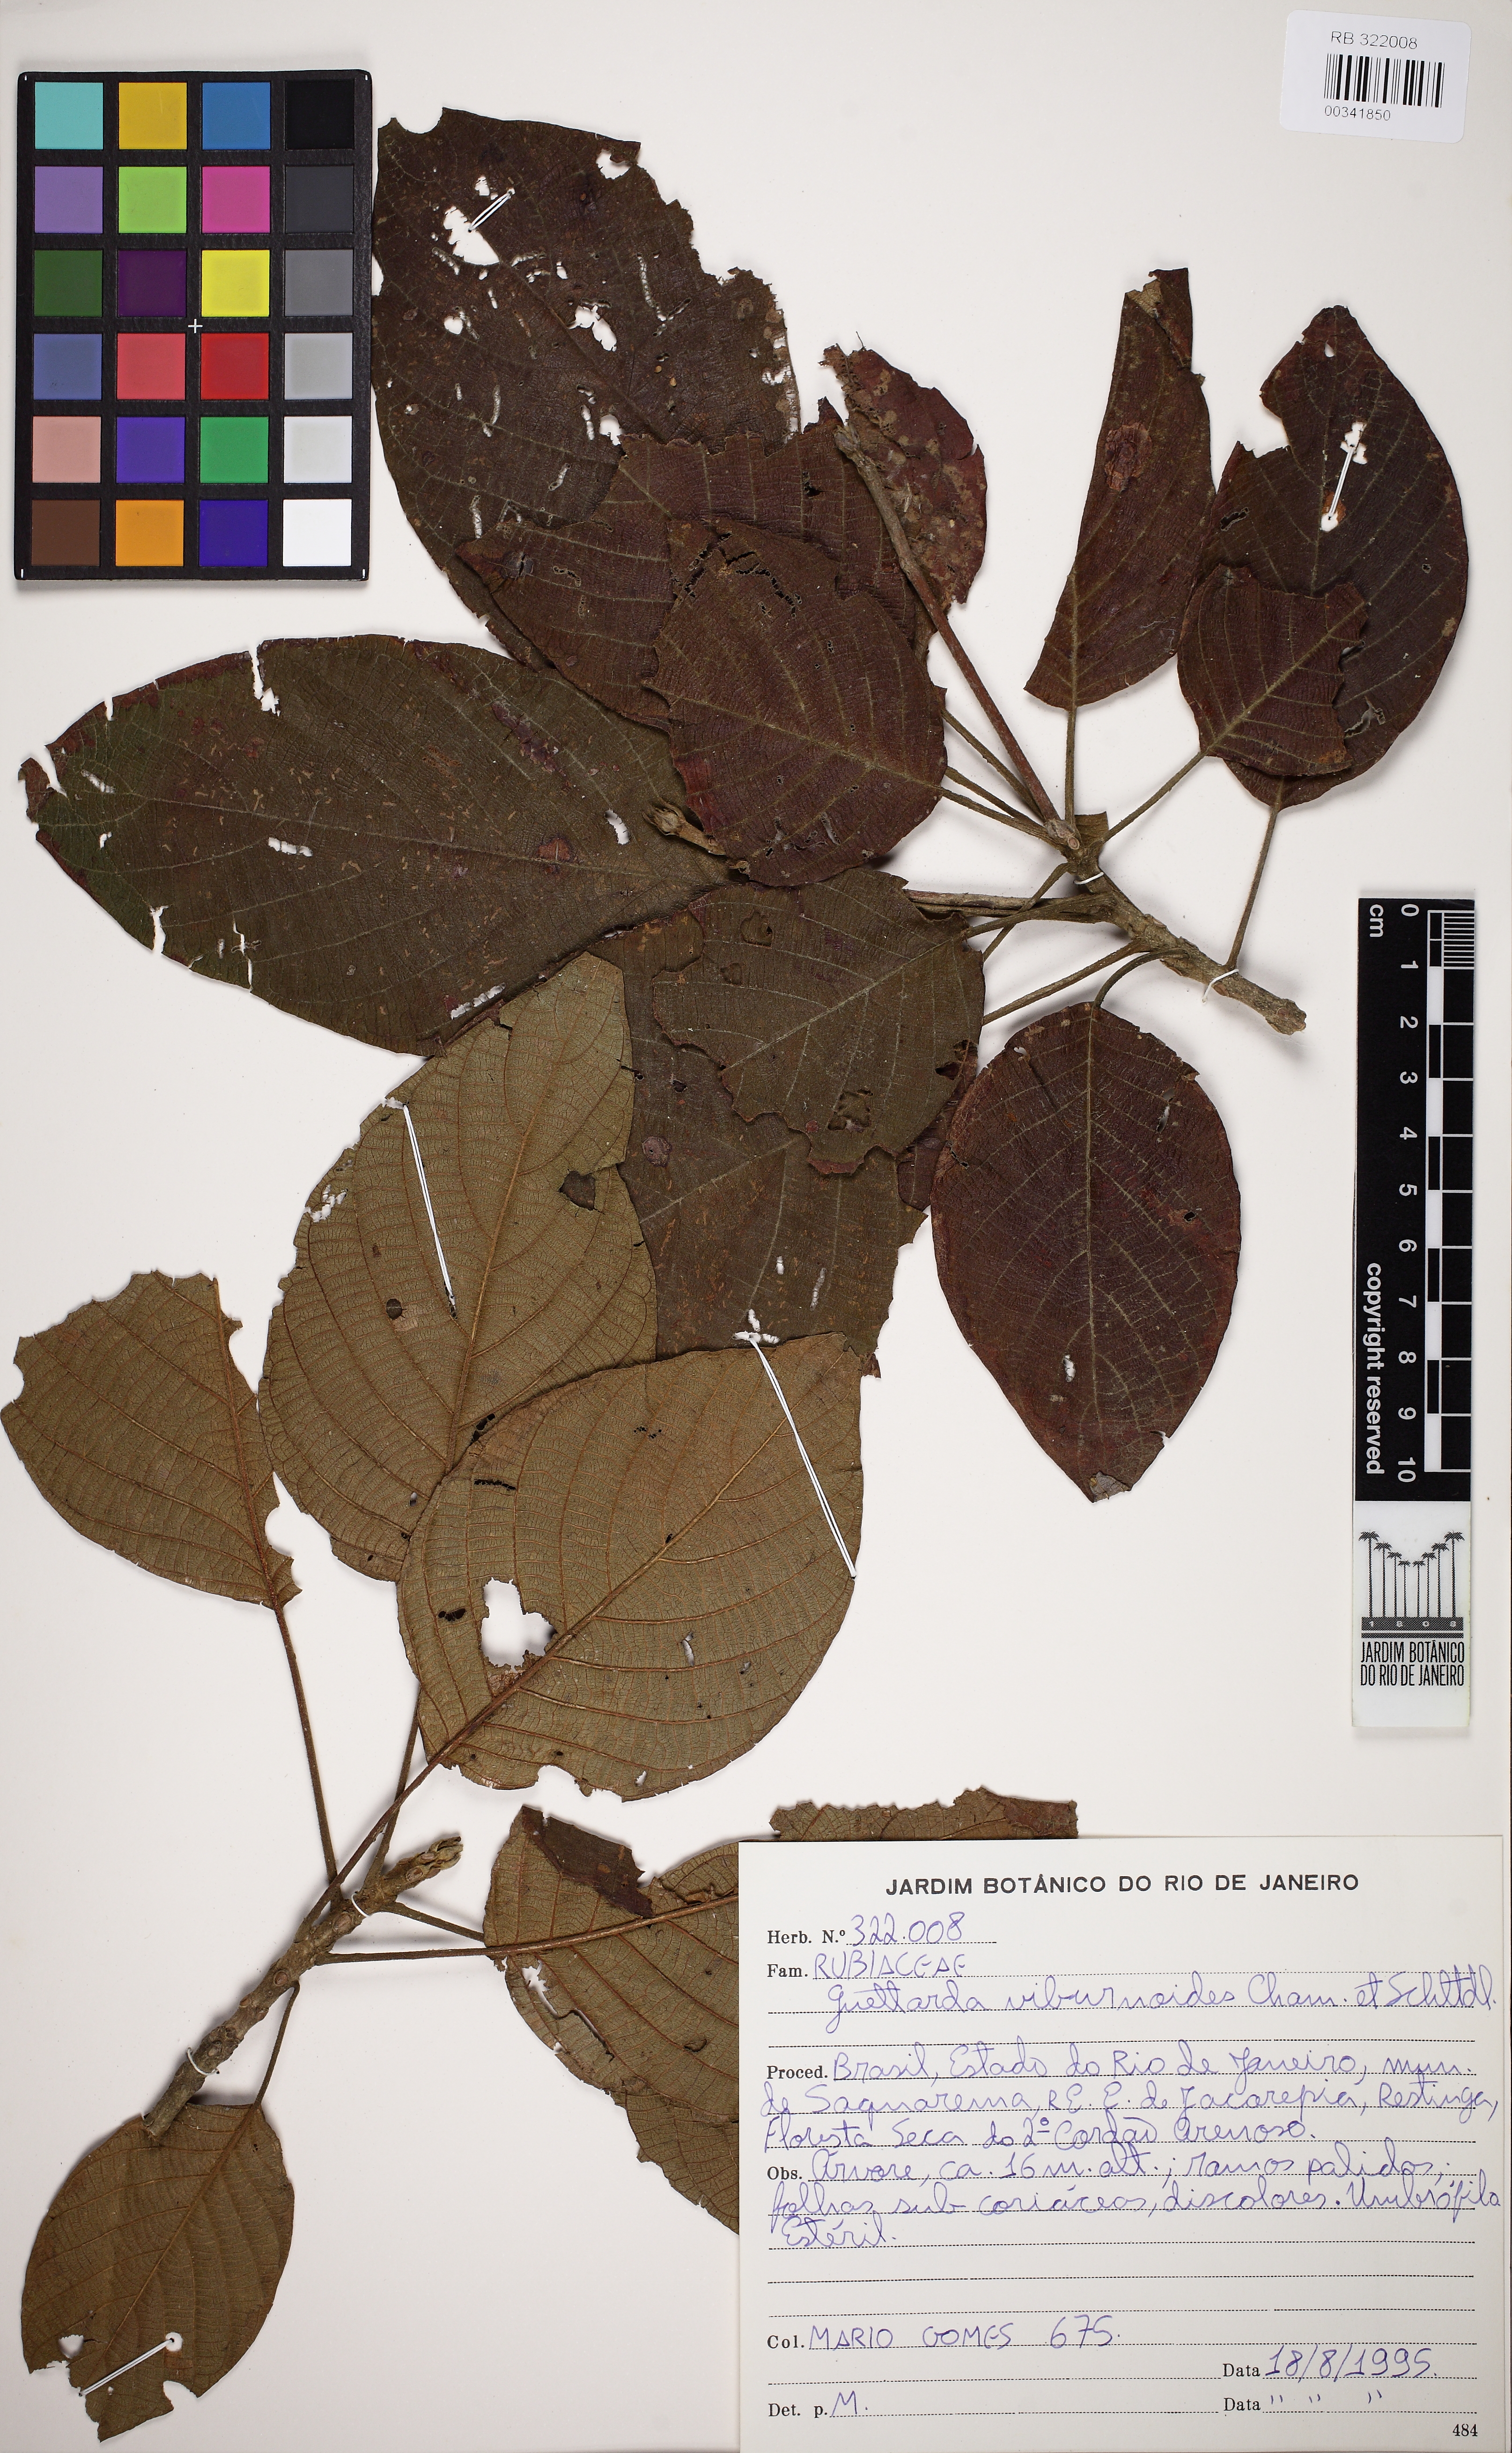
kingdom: Plantae
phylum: Tracheophyta
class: Magnoliopsida
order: Gentianales
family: Rubiaceae
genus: Guettarda
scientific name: Guettarda viburnoides
